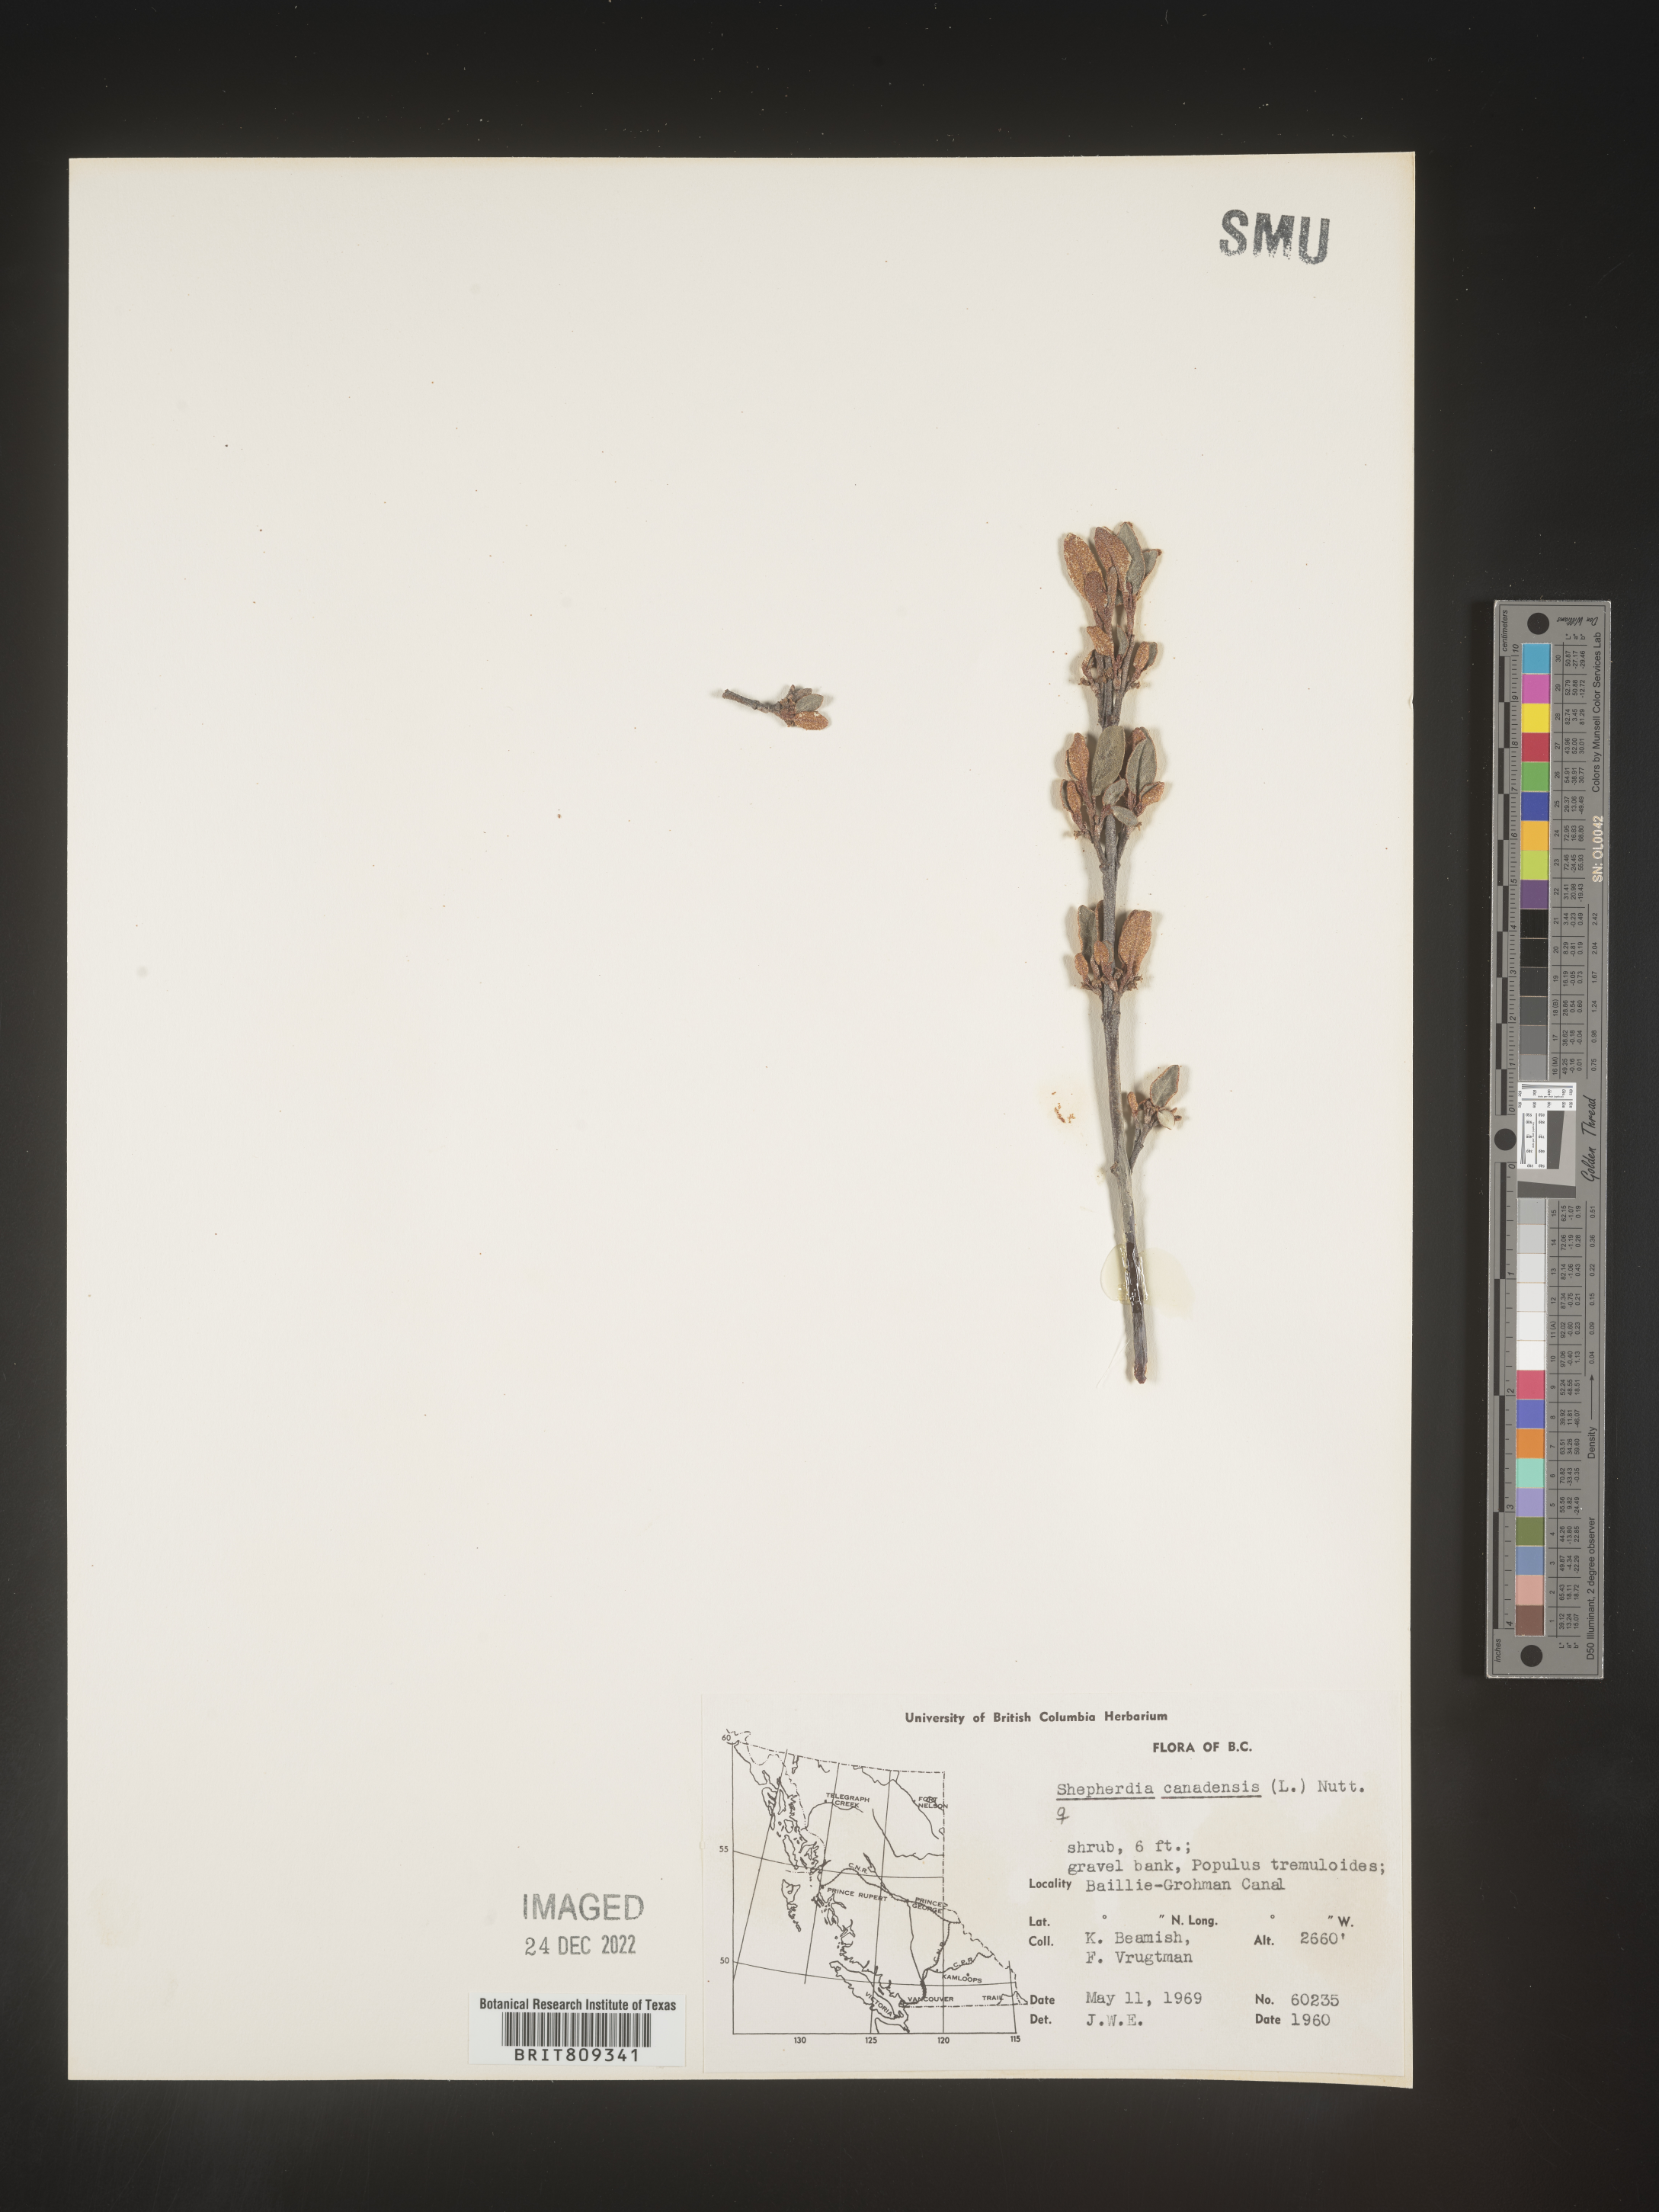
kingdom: Plantae
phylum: Tracheophyta
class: Magnoliopsida
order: Rosales
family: Elaeagnaceae
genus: Shepherdia
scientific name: Shepherdia canadensis
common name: Soapberry
